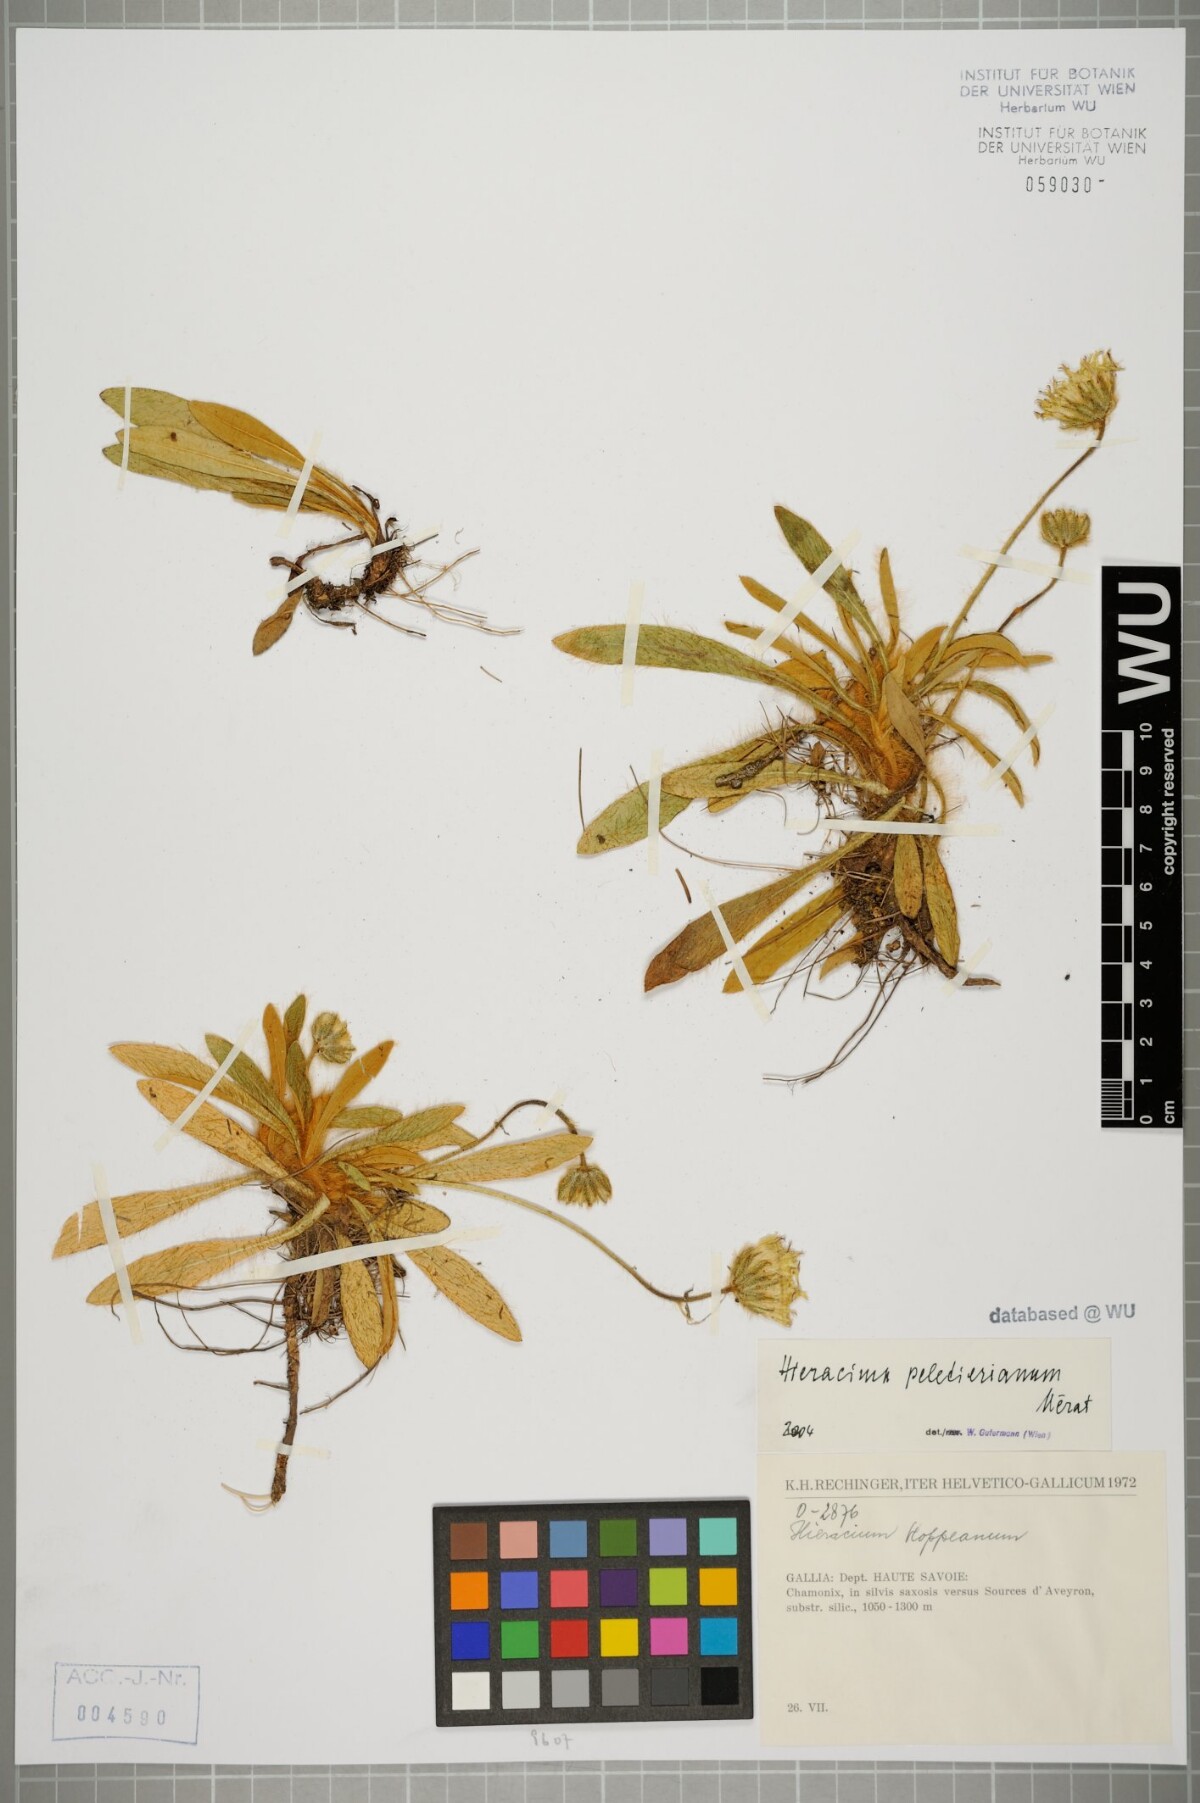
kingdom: Plantae
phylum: Tracheophyta
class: Magnoliopsida
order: Asterales
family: Asteraceae
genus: Pilosella
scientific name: Pilosella peleteriana
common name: Shaggy mouse-ear-hawkweed
